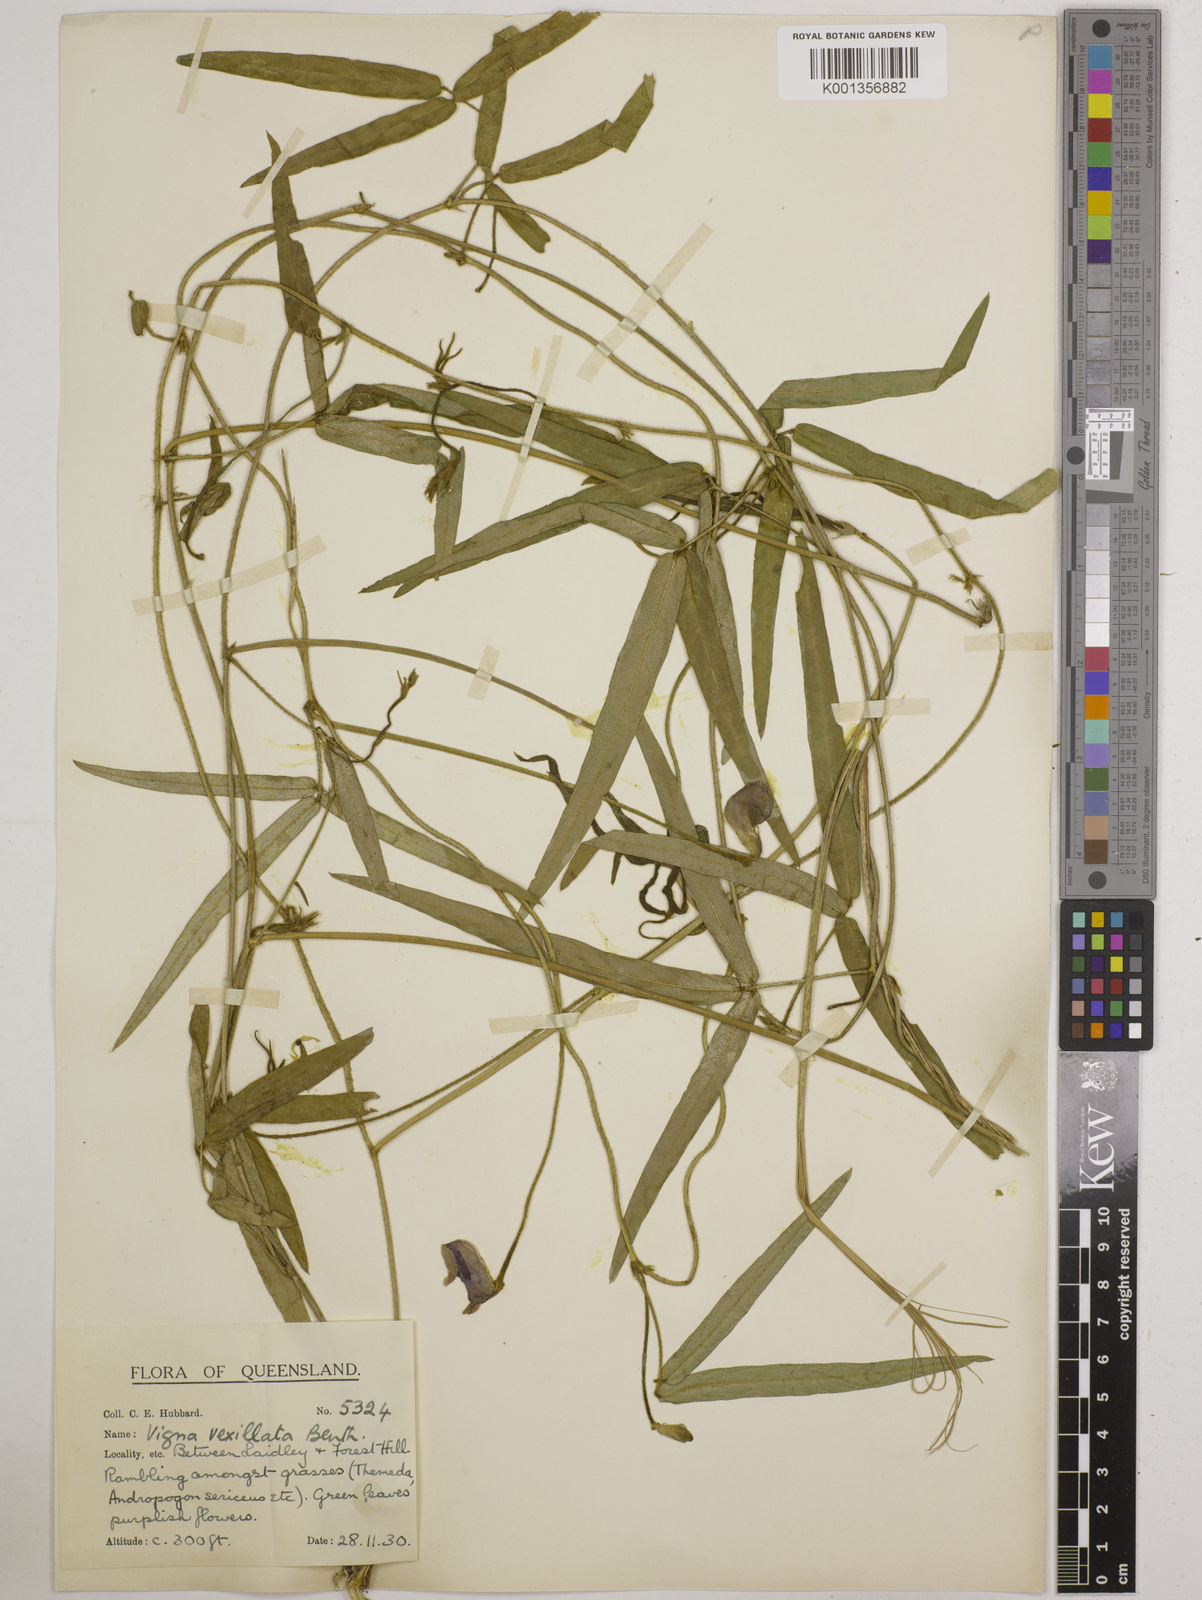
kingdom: Plantae
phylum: Tracheophyta
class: Magnoliopsida
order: Fabales
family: Fabaceae
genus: Vigna
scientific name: Vigna vexillata
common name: Zombi pea
